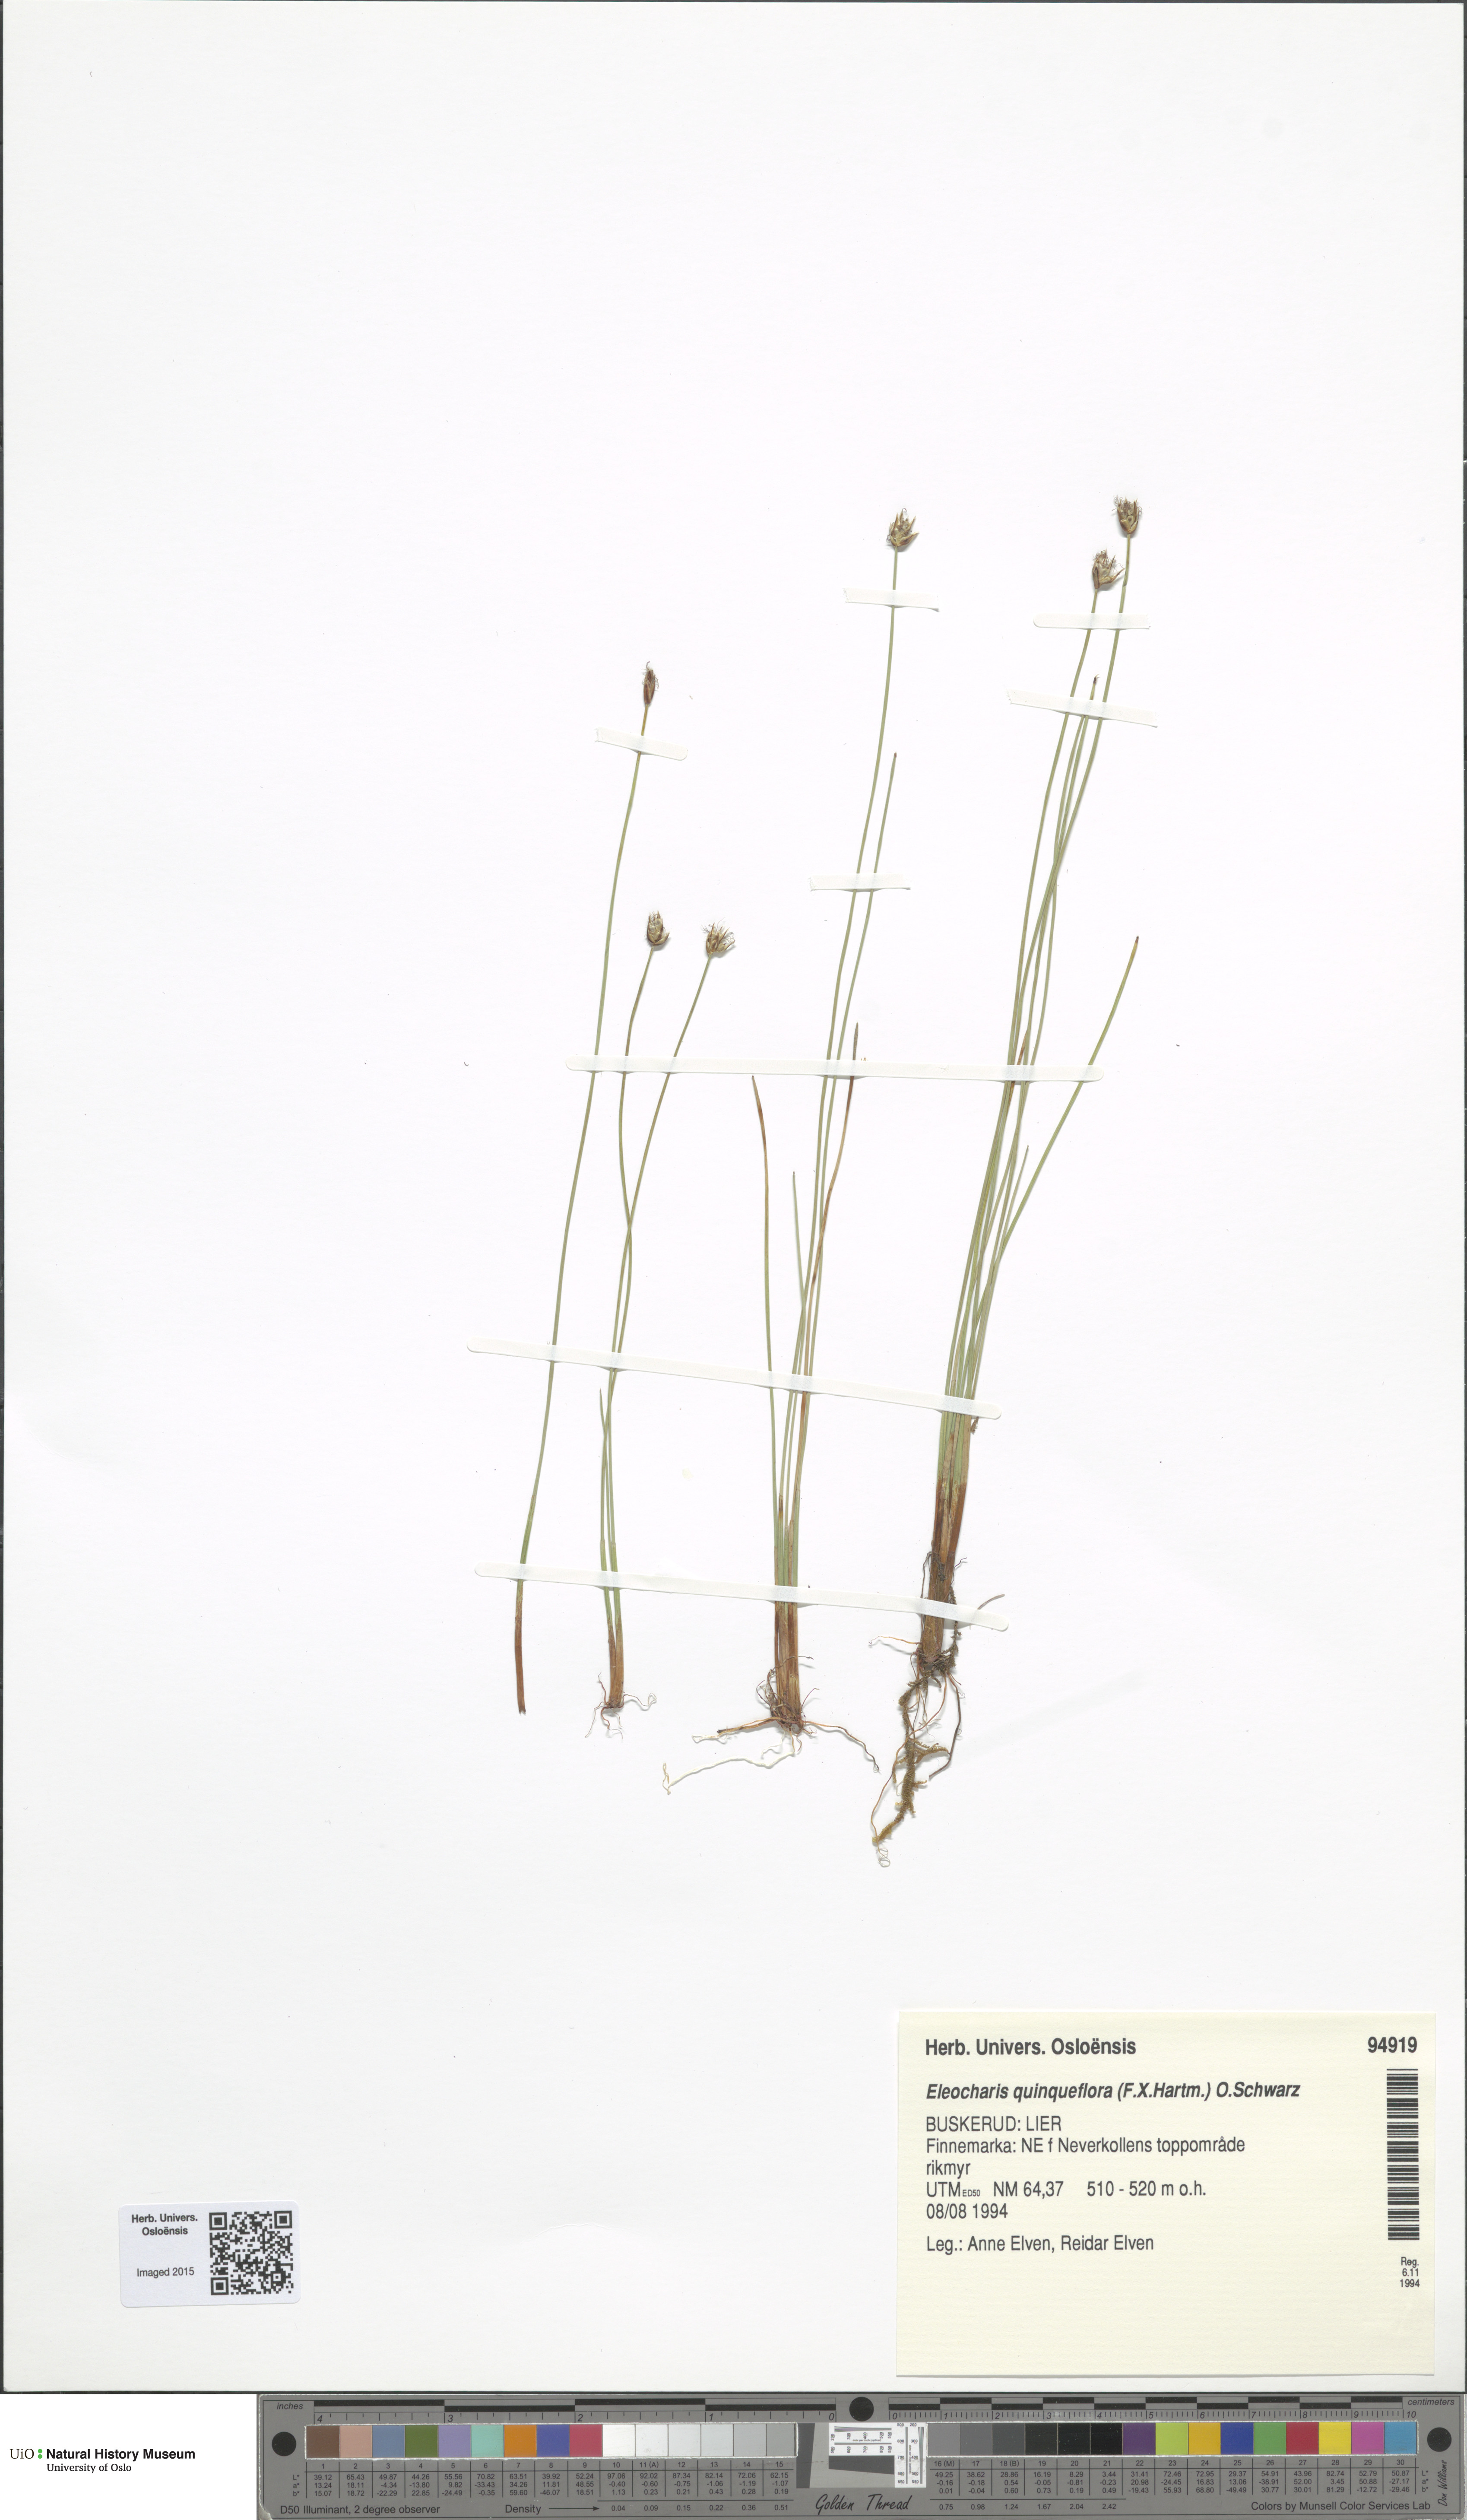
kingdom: Plantae
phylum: Tracheophyta
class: Liliopsida
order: Poales
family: Cyperaceae
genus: Eleocharis
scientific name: Eleocharis quinqueflora
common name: Few-flowered spike-rush
